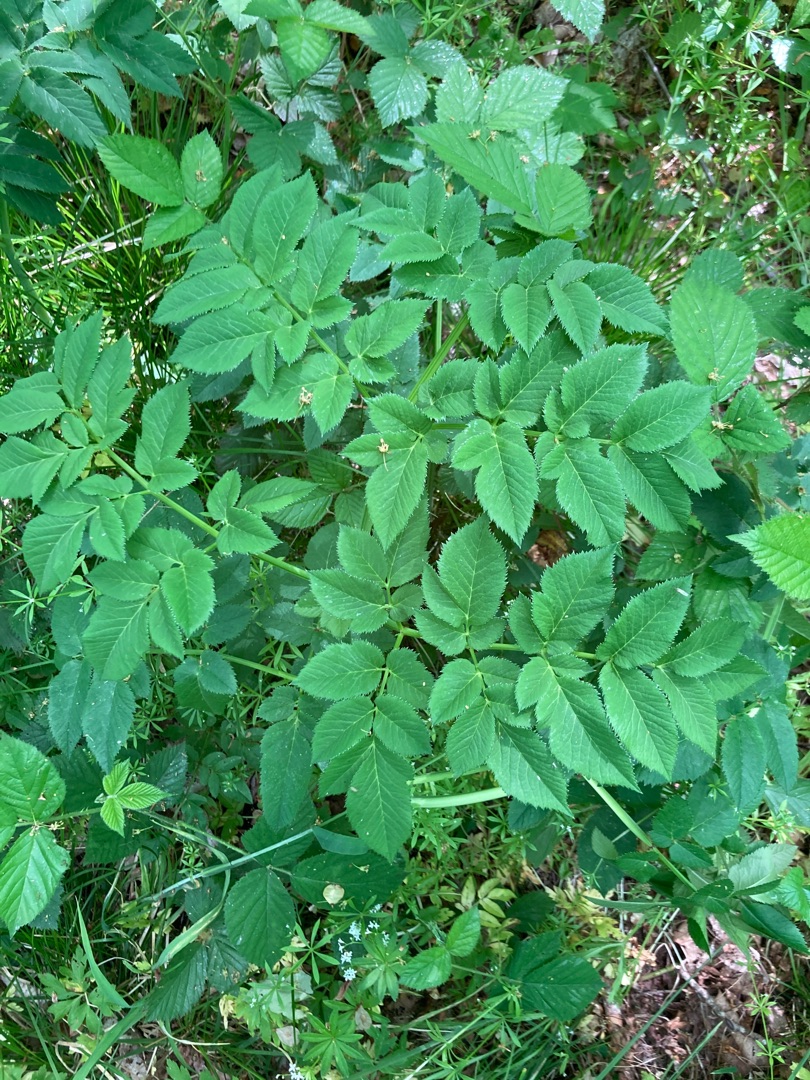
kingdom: Plantae
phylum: Tracheophyta
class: Magnoliopsida
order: Apiales
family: Apiaceae
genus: Angelica
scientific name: Angelica sylvestris
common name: Angelik
